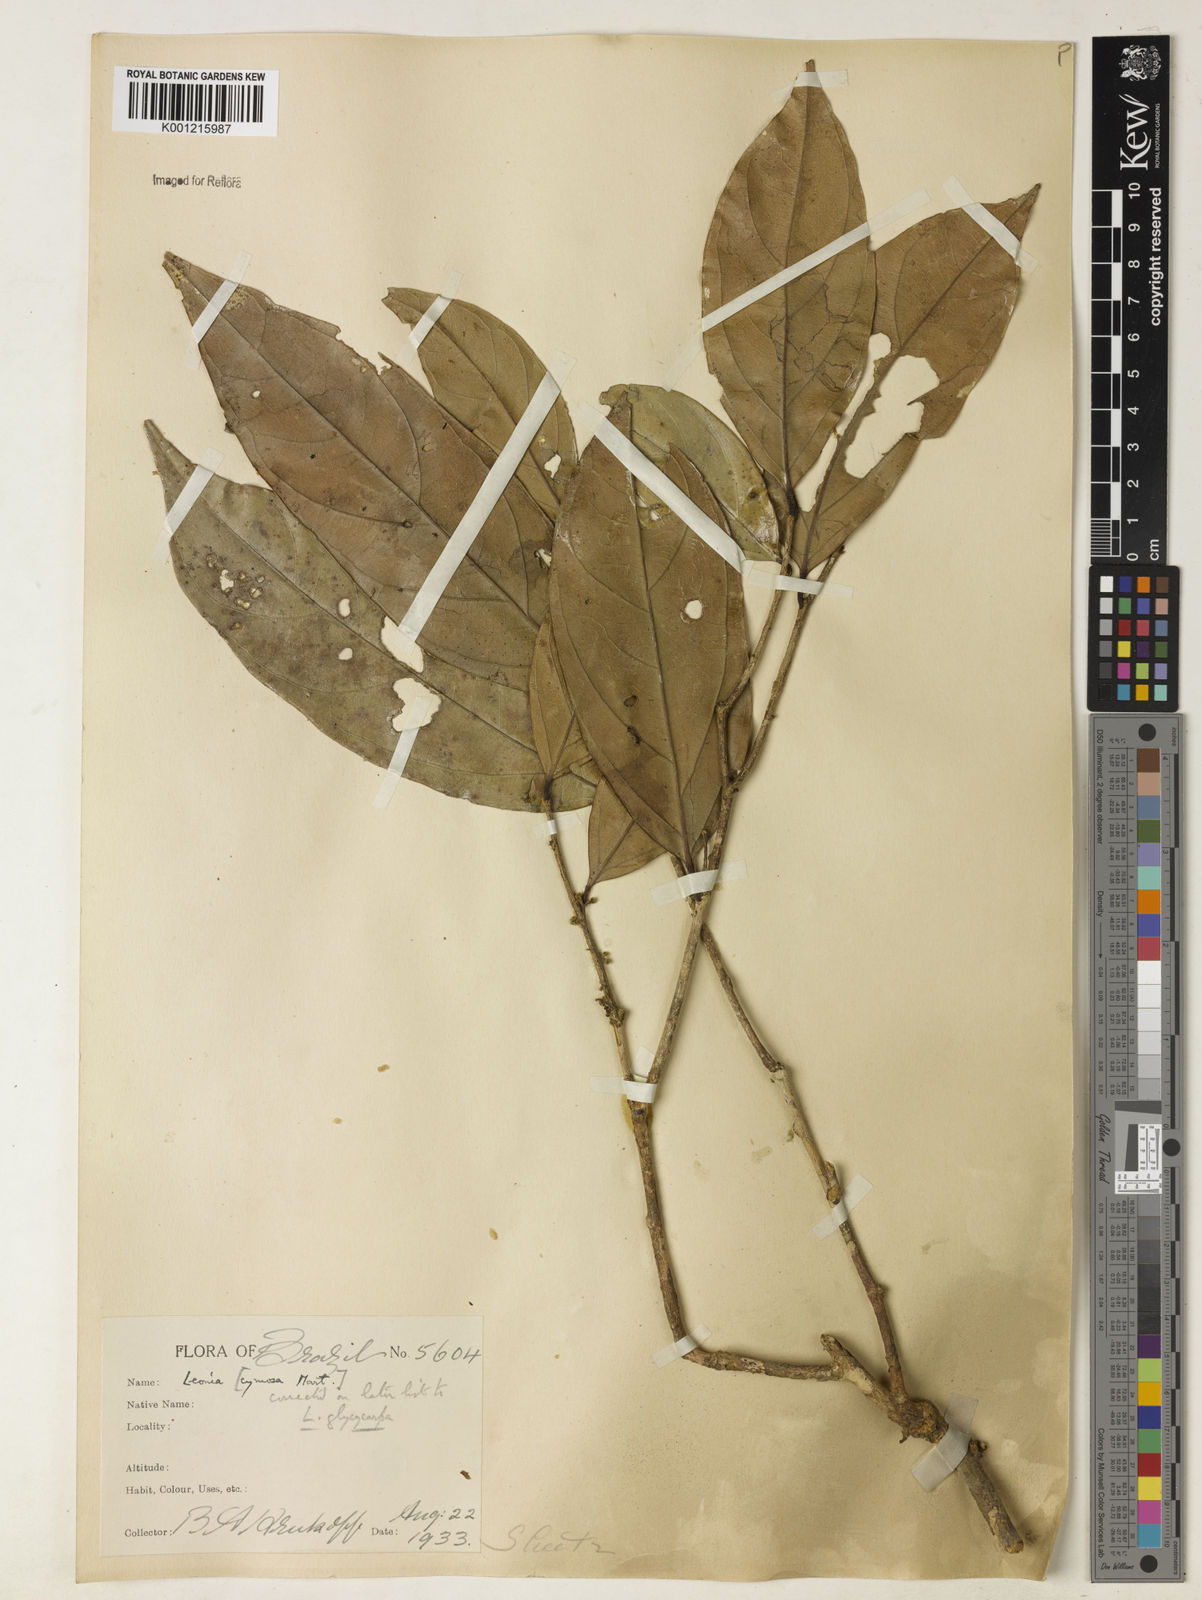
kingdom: Plantae
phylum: Tracheophyta
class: Magnoliopsida
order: Malpighiales
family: Violaceae
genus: Leonia
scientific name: Leonia glycycarpa
